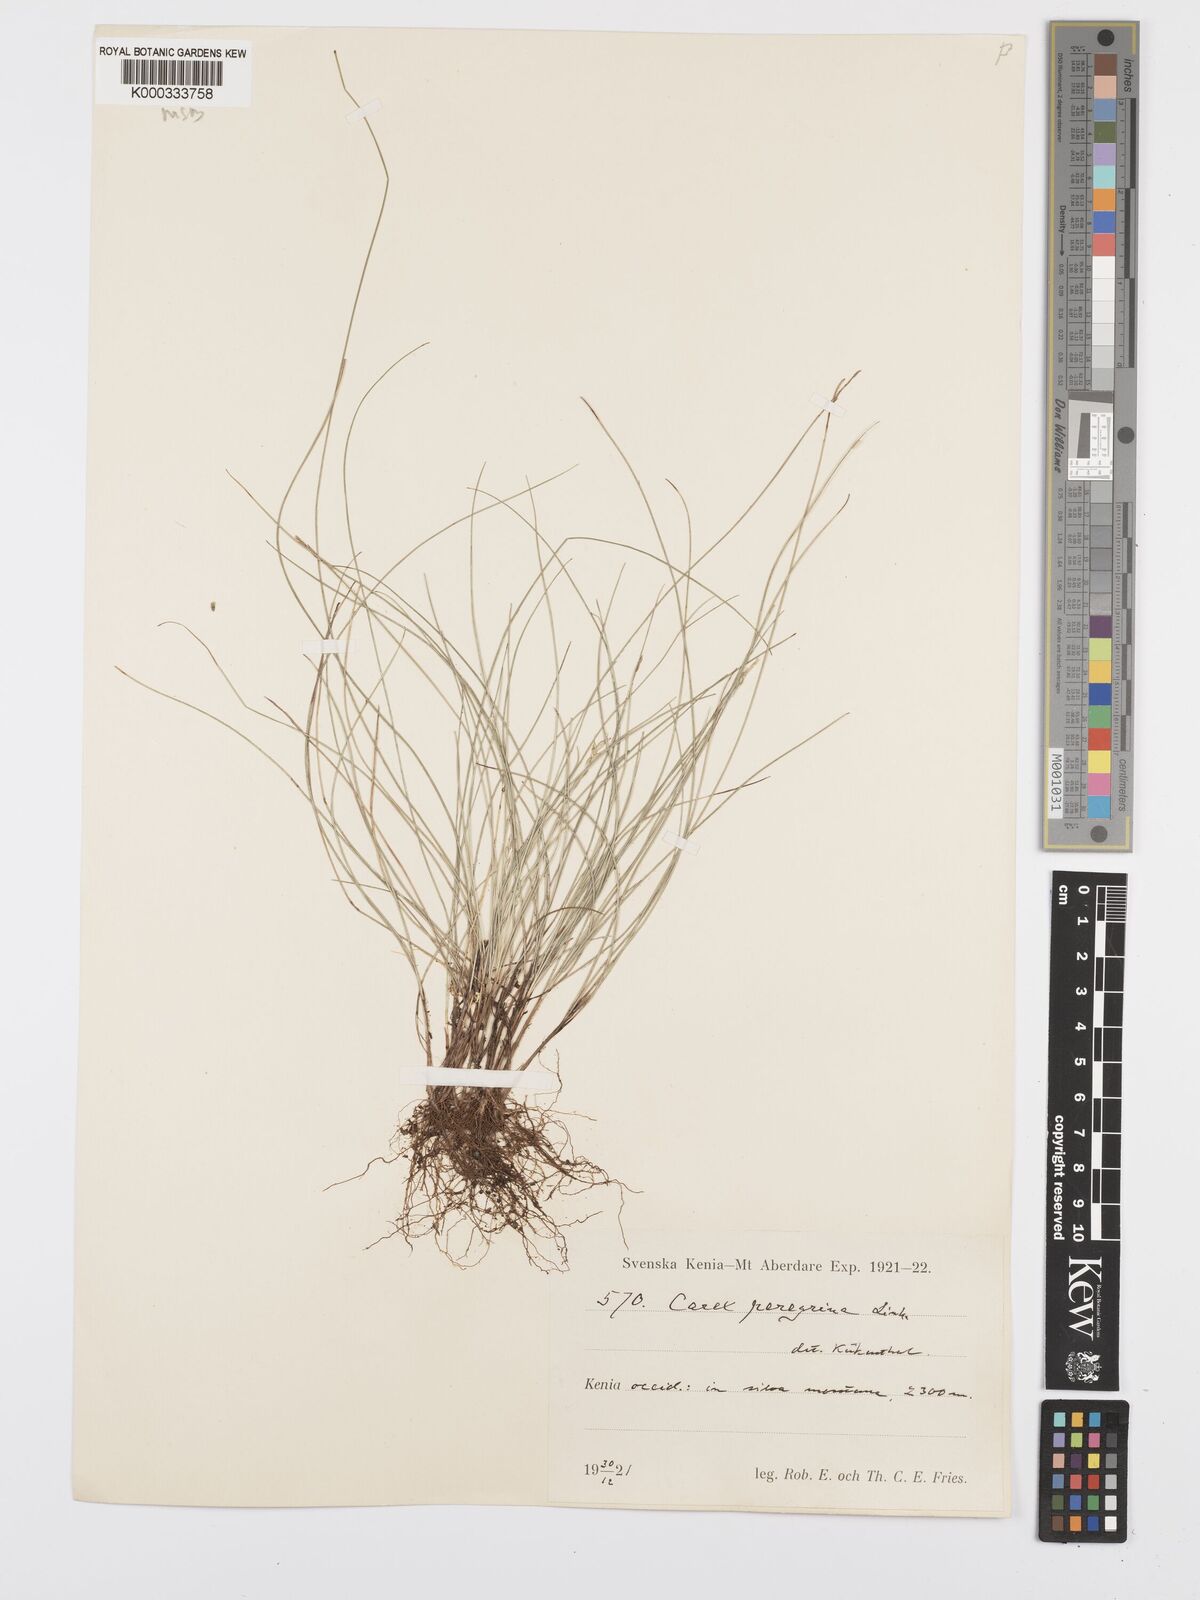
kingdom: Plantae
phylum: Tracheophyta
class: Liliopsida
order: Poales
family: Cyperaceae
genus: Carex
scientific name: Carex peregrina
